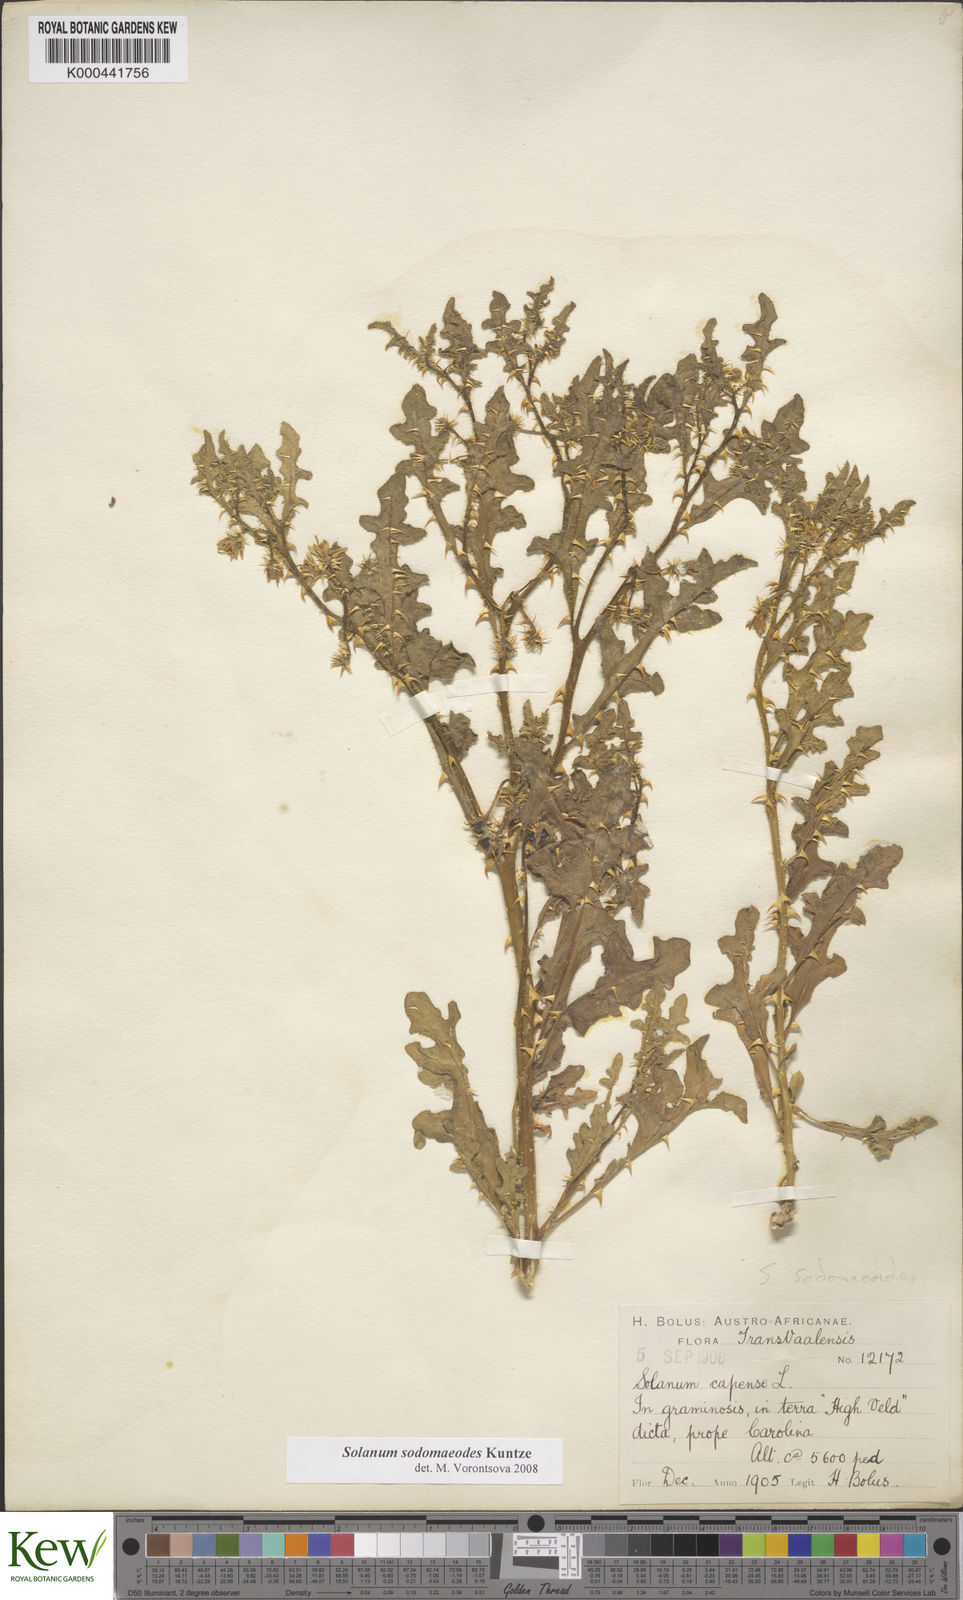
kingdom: Plantae
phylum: Tracheophyta
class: Magnoliopsida
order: Solanales
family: Solanaceae
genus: Solanum
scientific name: Solanum
